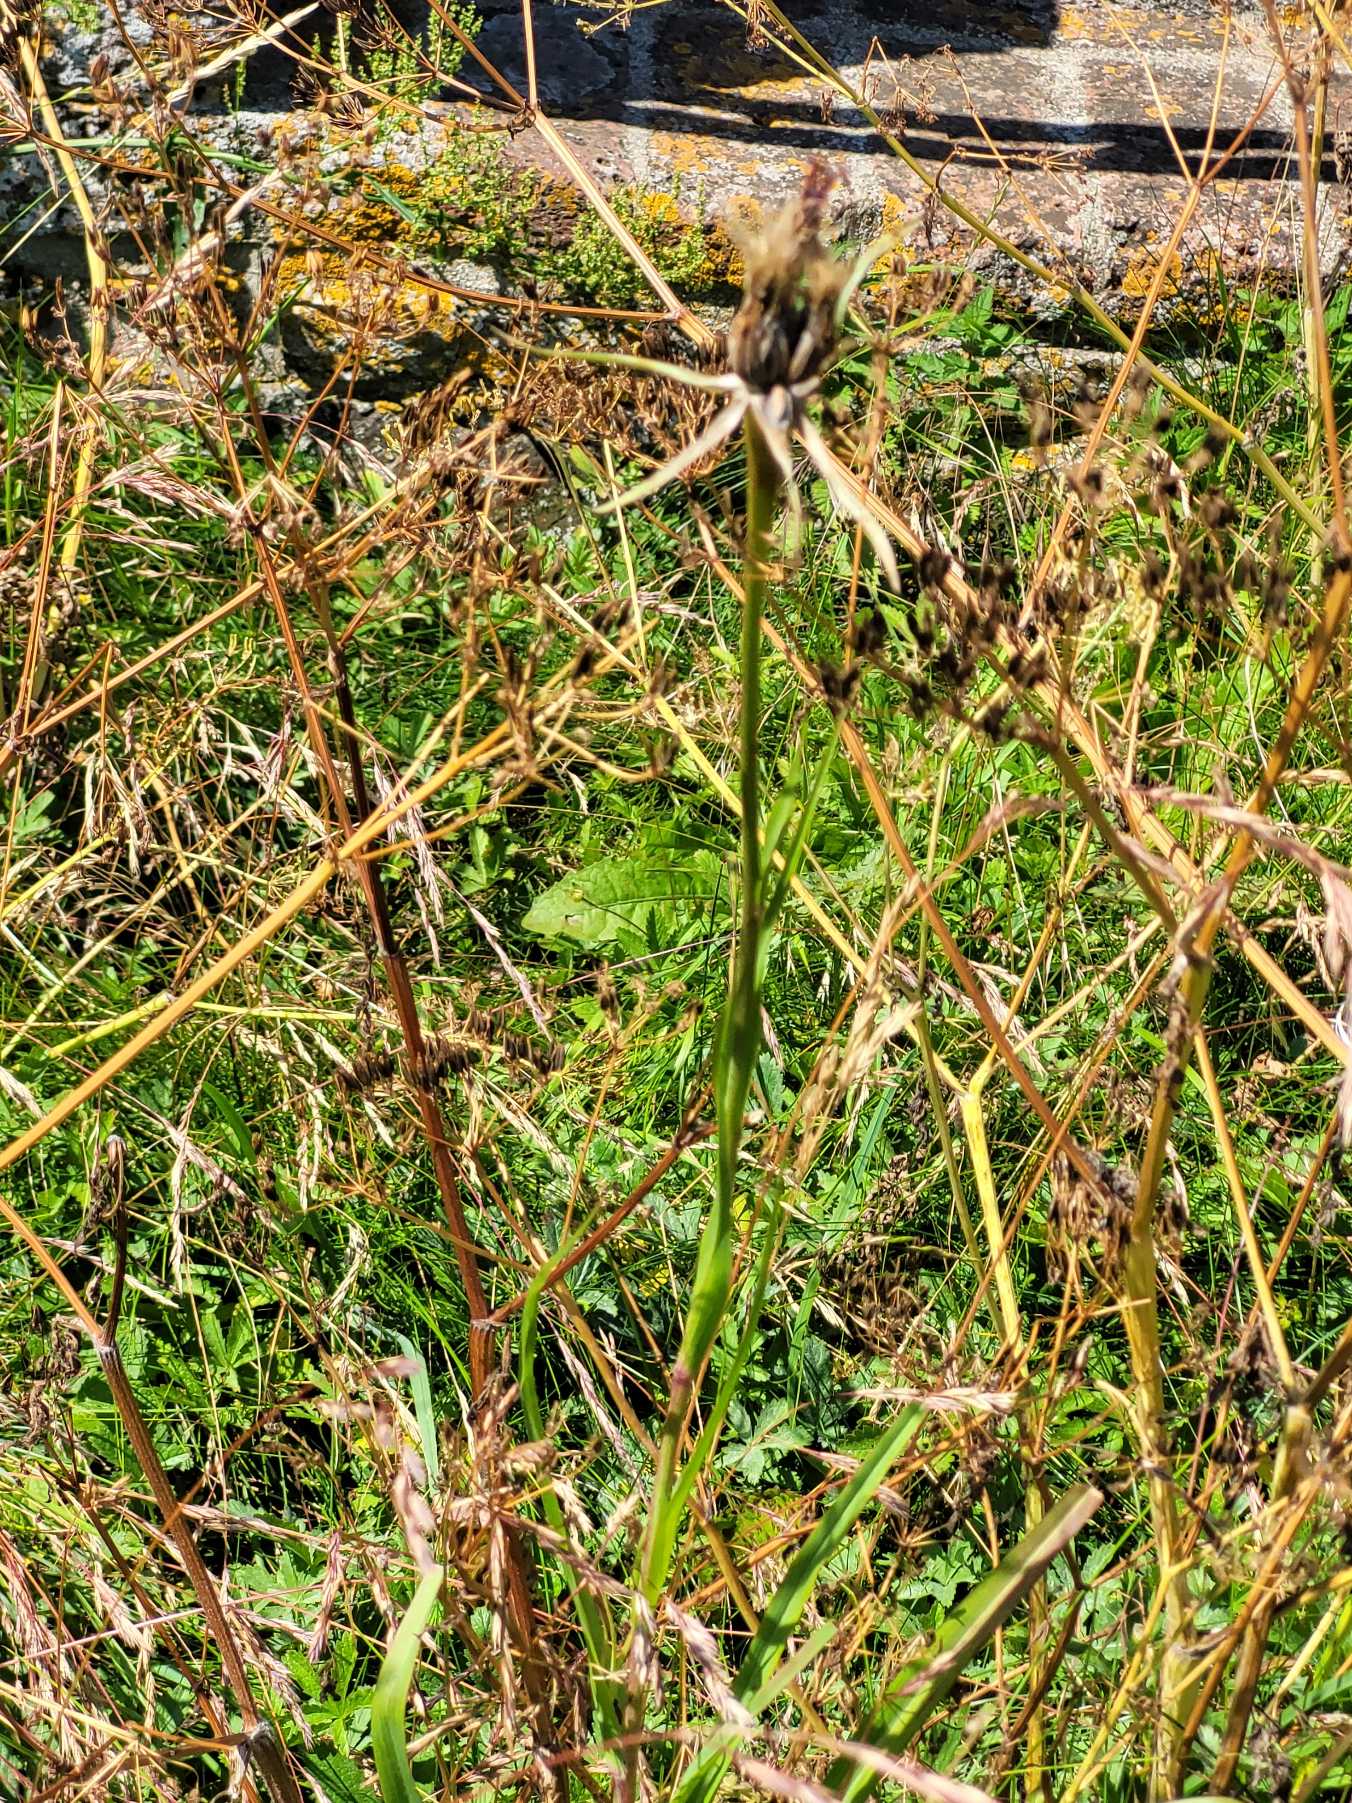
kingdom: Plantae
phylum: Tracheophyta
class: Magnoliopsida
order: Asterales
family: Asteraceae
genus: Tragopogon
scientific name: Tragopogon porrifolius
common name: Havrerod
